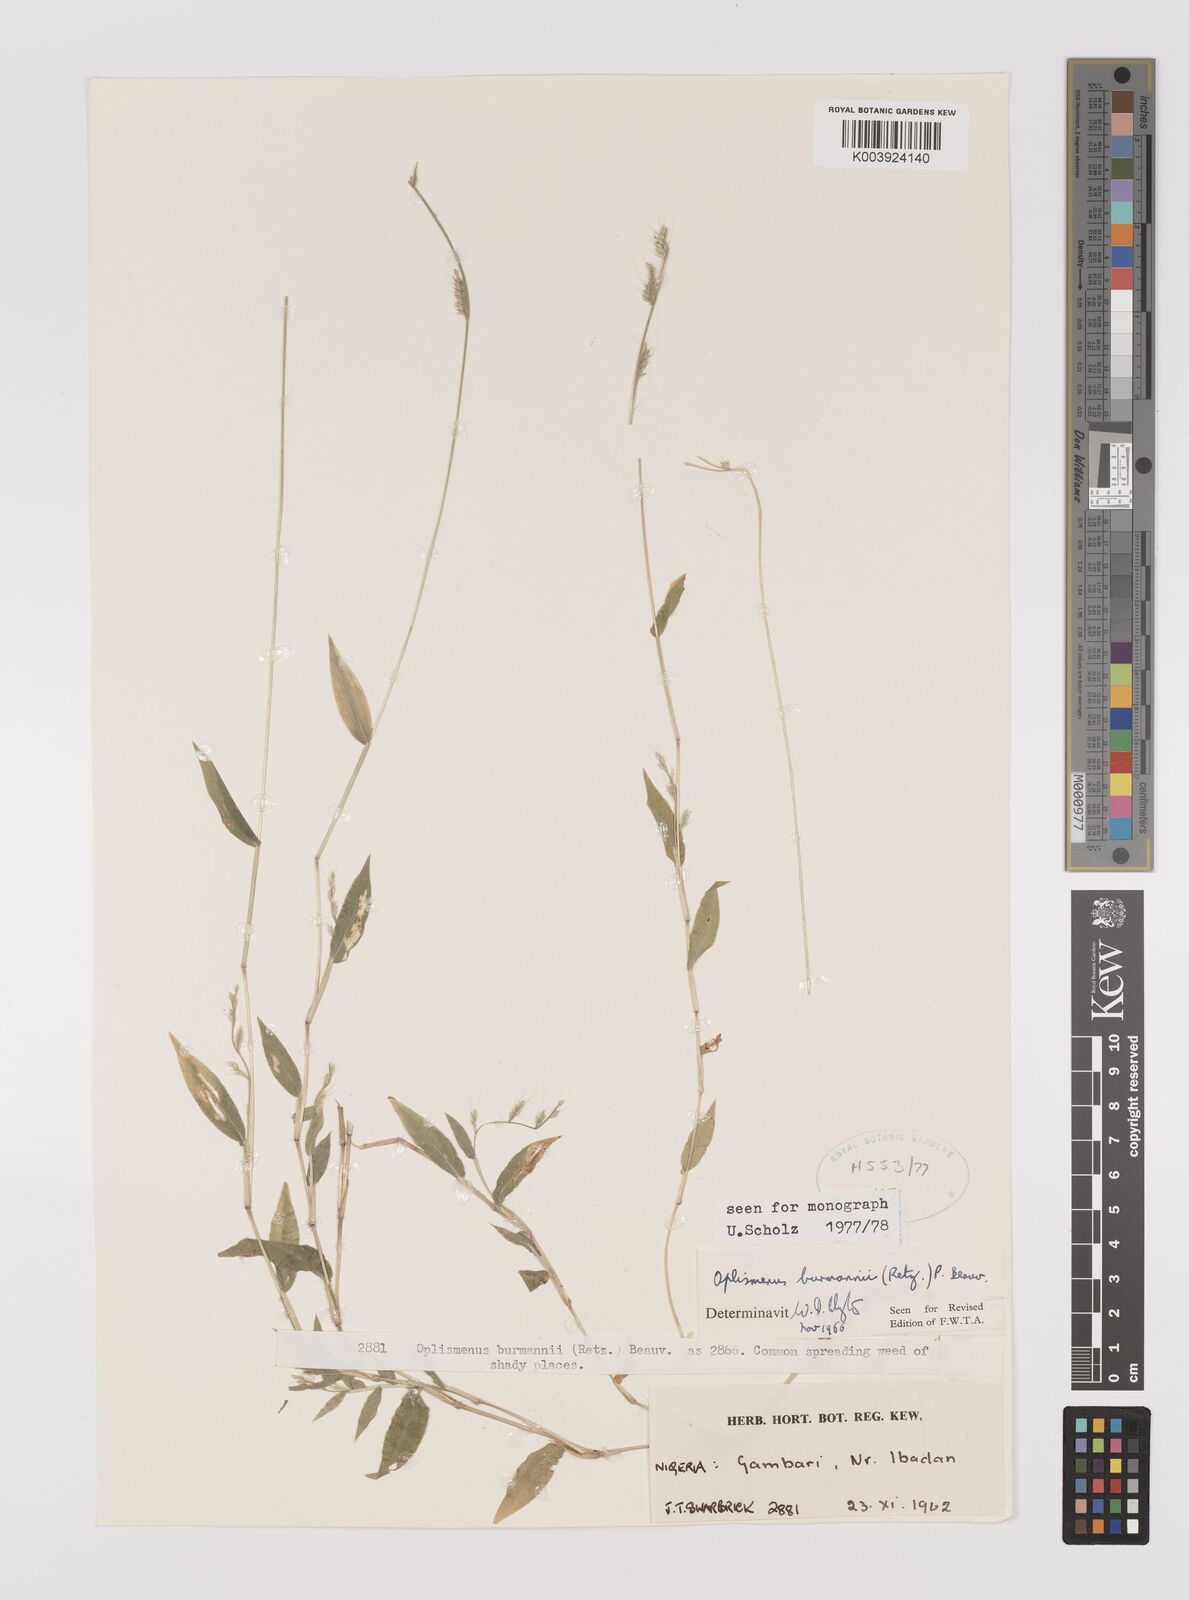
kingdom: Plantae
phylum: Tracheophyta
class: Liliopsida
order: Poales
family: Poaceae
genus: Oplismenus
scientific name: Oplismenus burmanni
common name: Burmann's basketgrass
